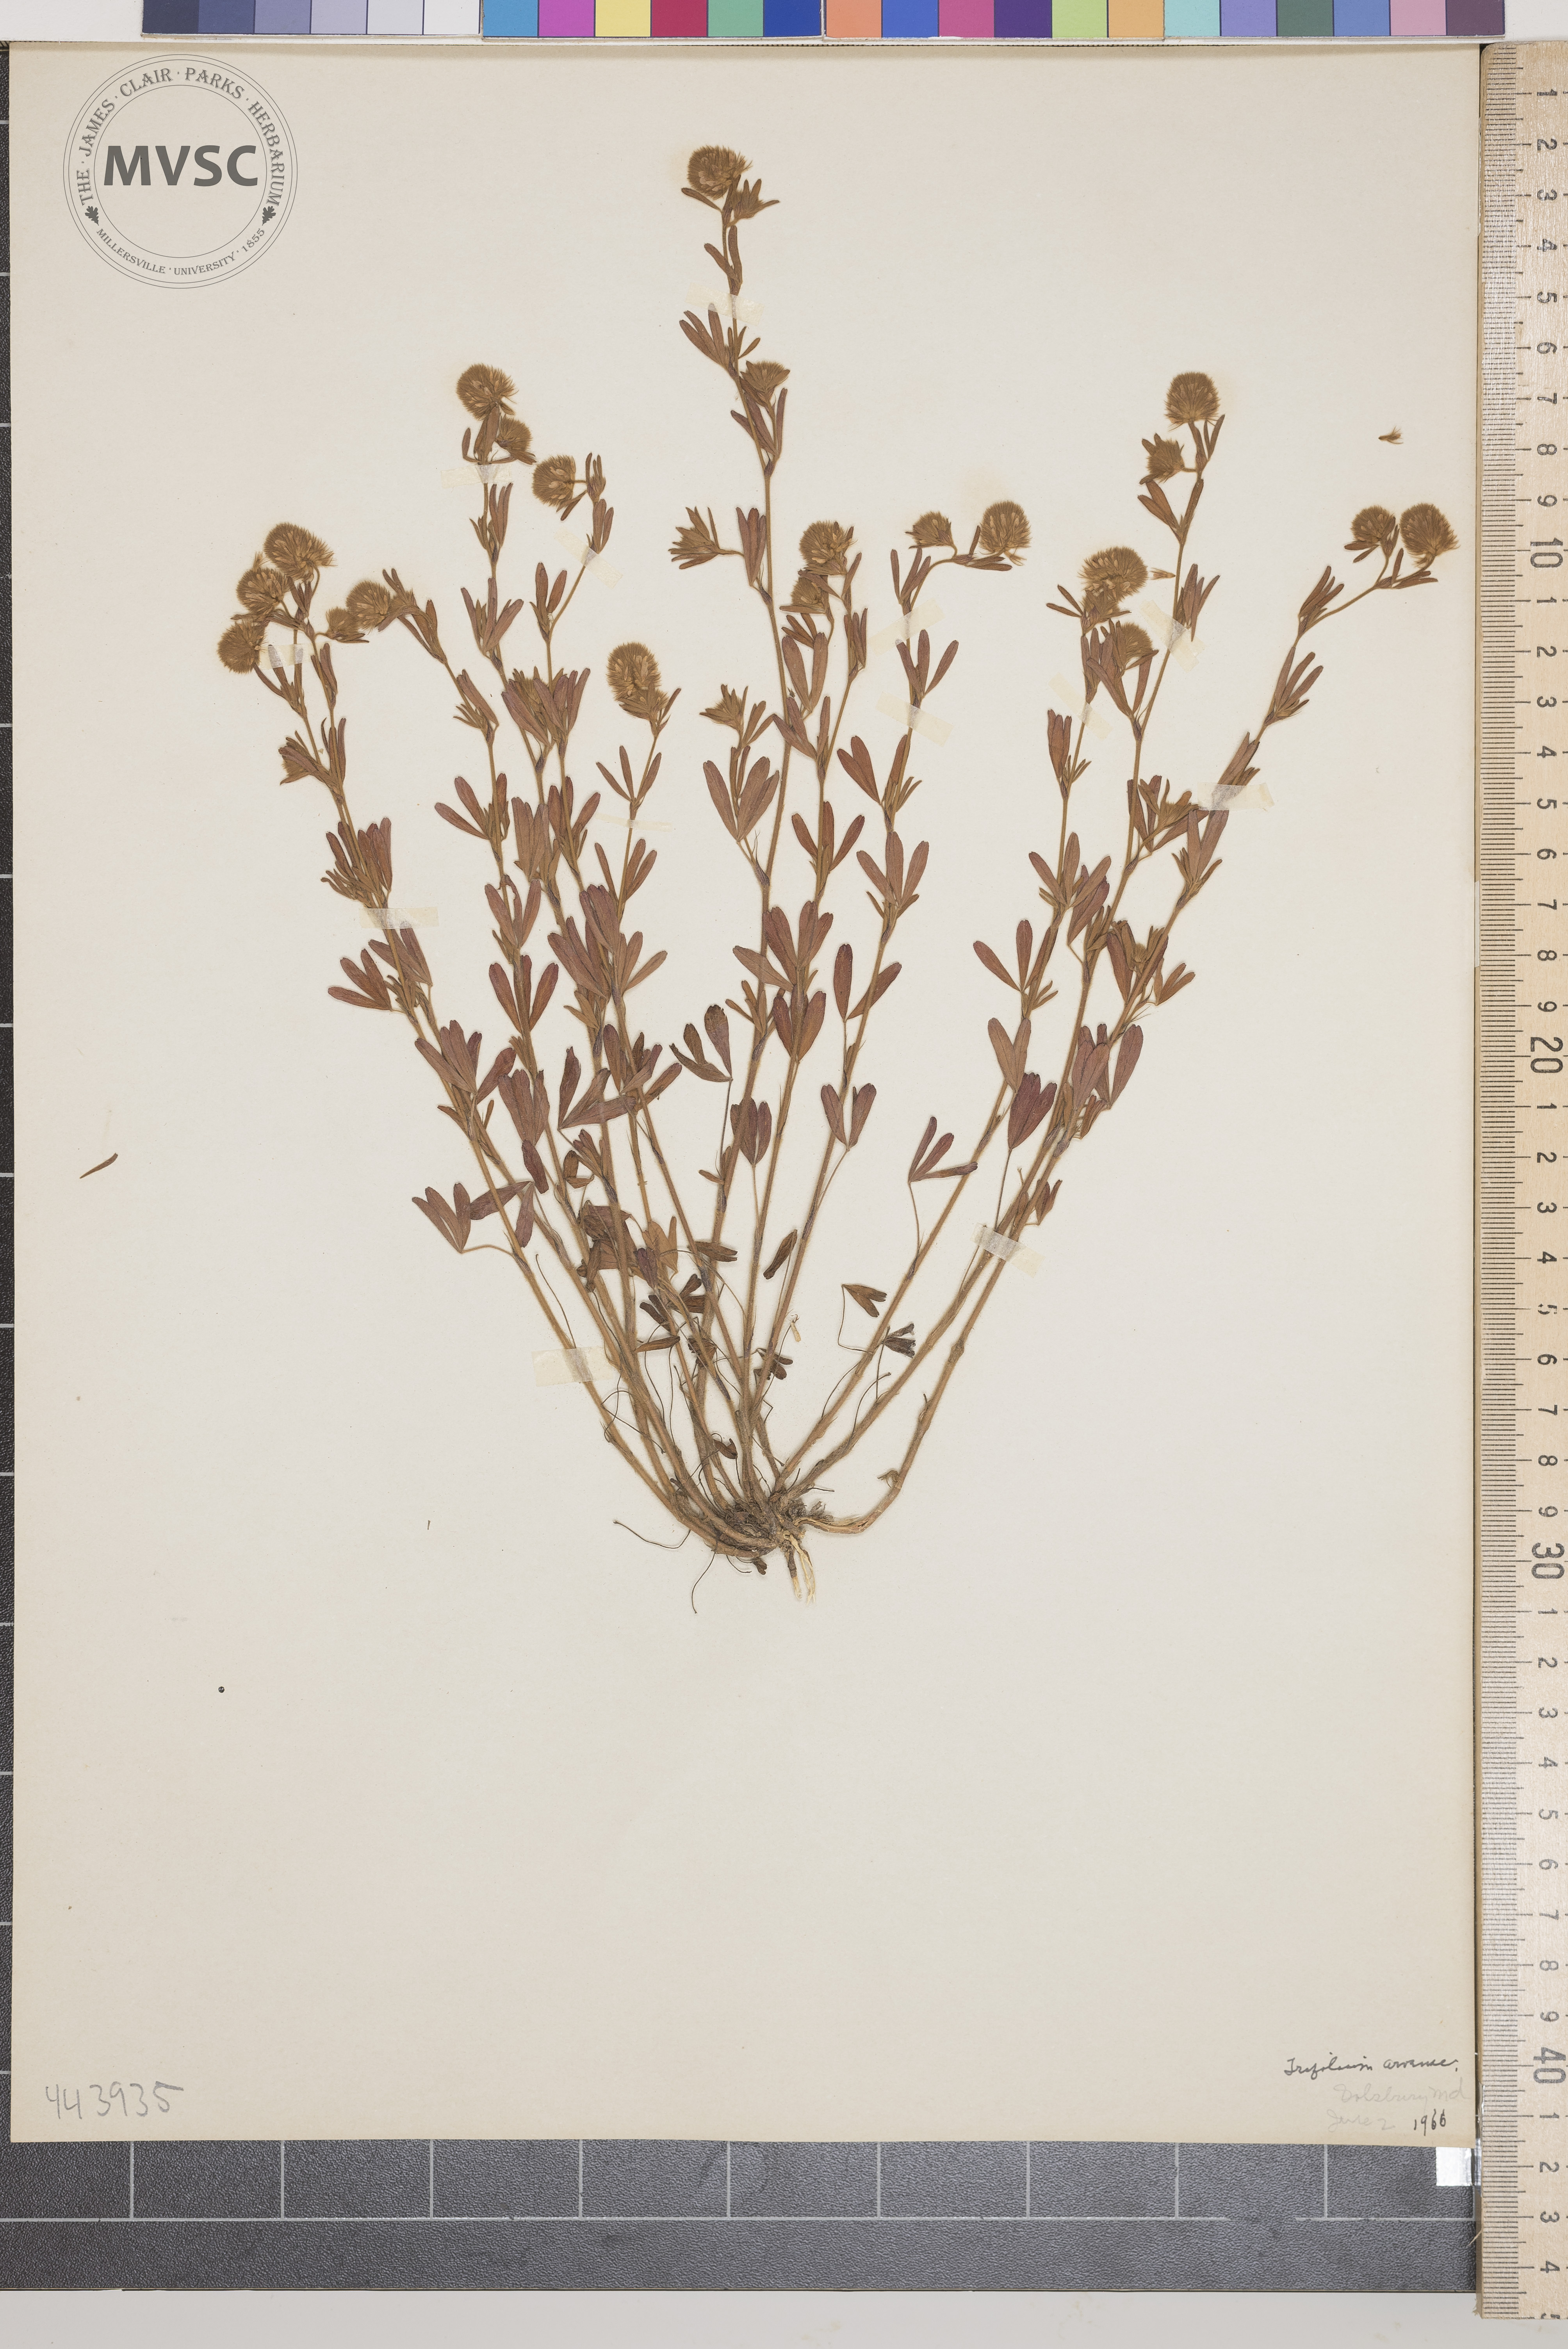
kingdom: Plantae
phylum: Tracheophyta
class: Magnoliopsida
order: Fabales
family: Fabaceae
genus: Trifolium
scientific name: Trifolium arvense
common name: Hare's-foot clover
